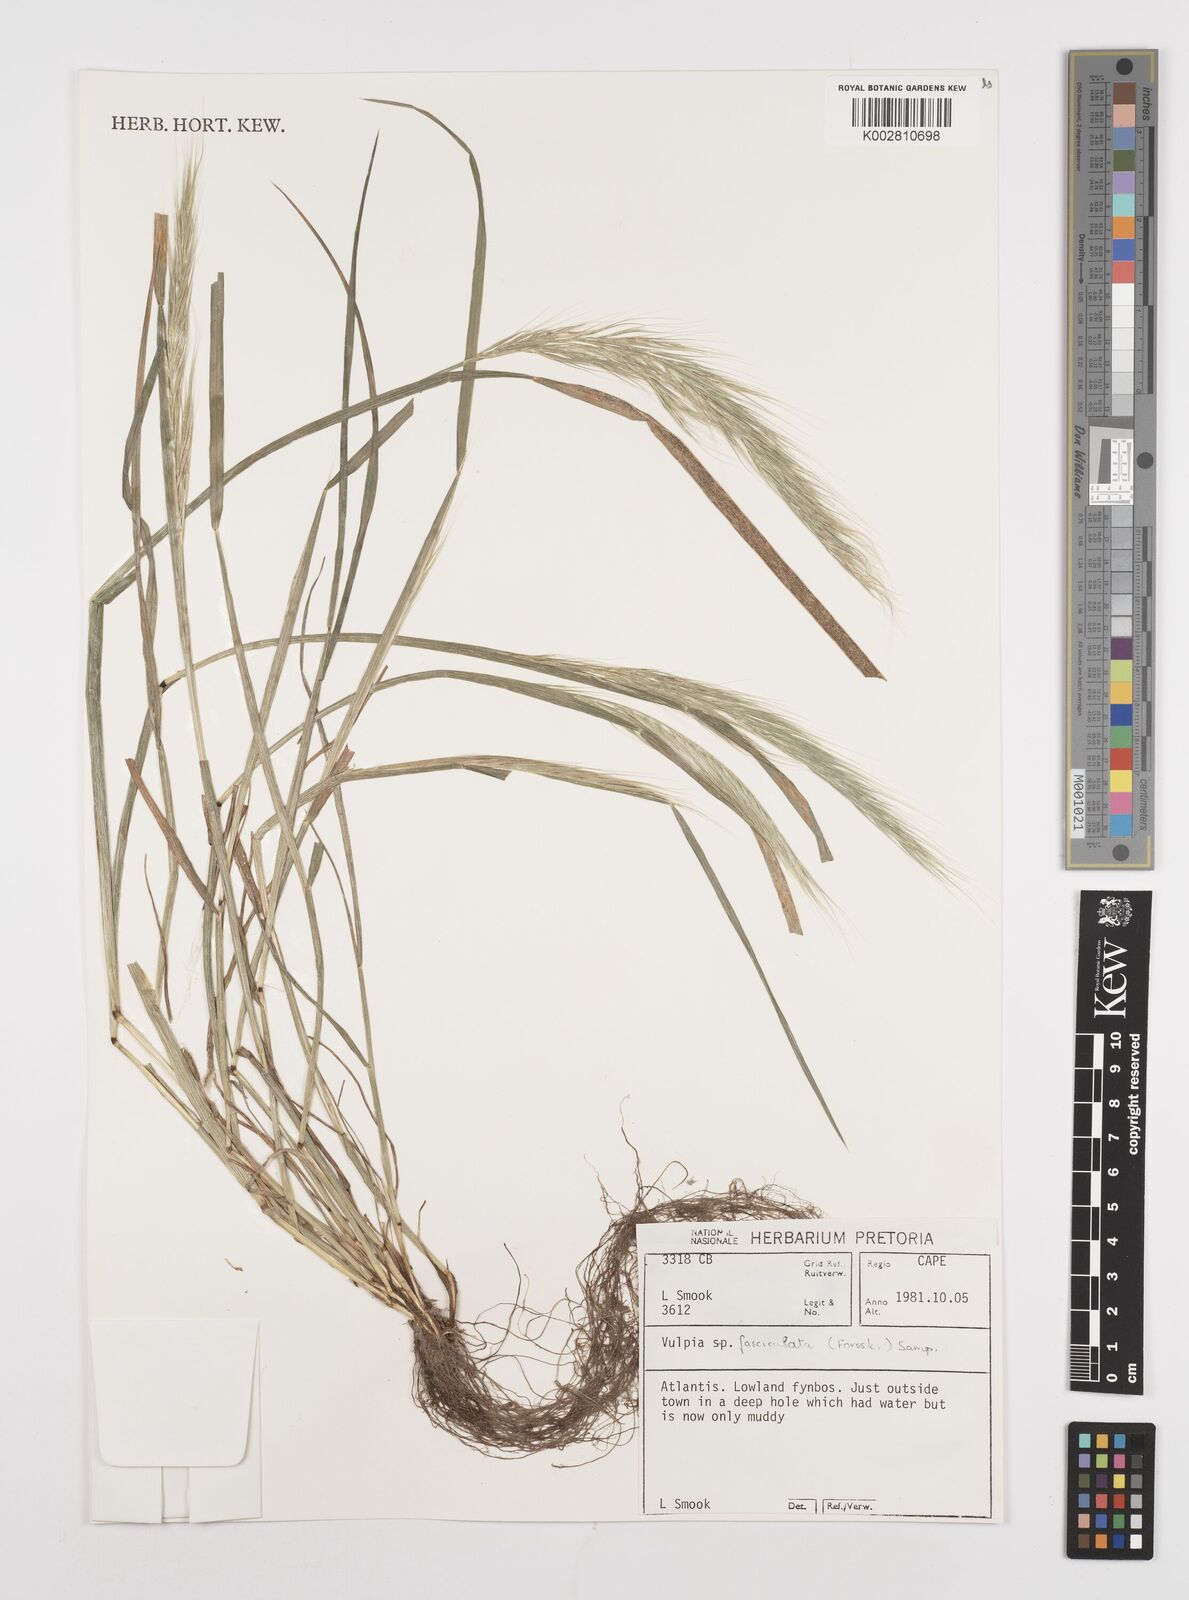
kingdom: Plantae
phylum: Tracheophyta
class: Liliopsida
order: Poales
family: Poaceae
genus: Festuca
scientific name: Festuca fasciculata
